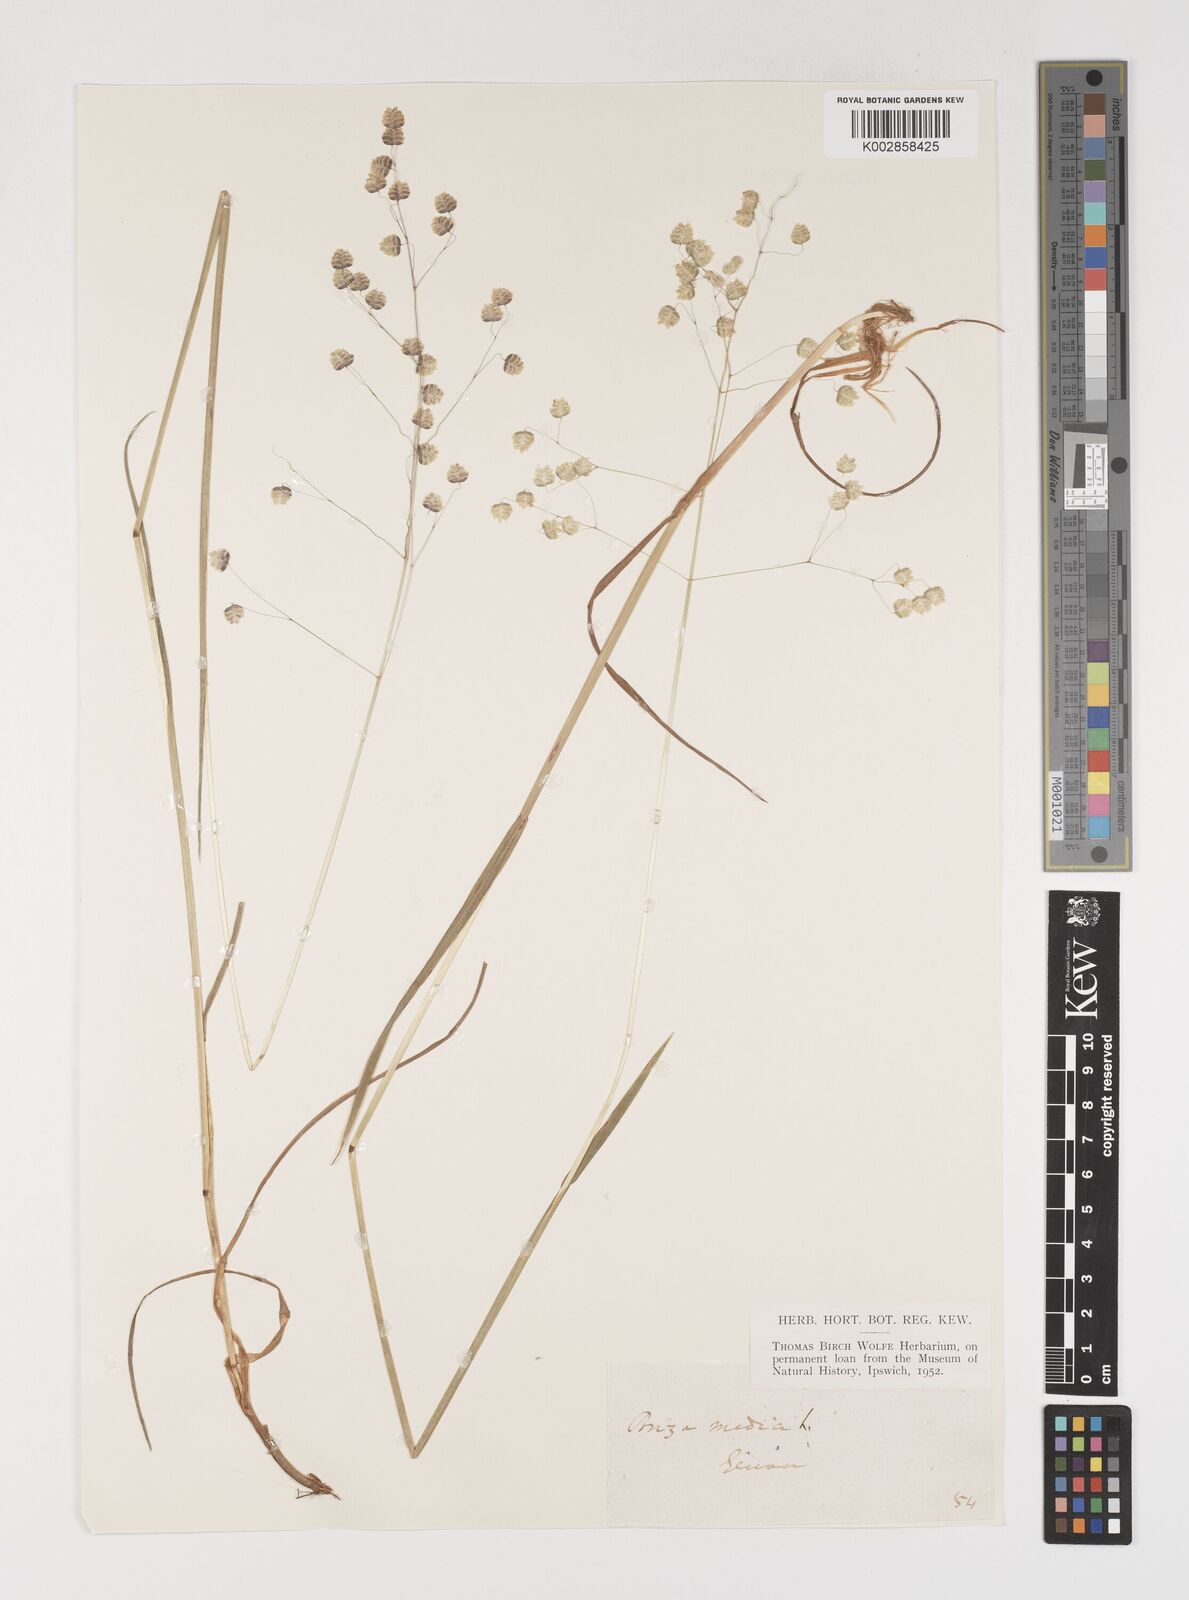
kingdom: Plantae
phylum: Tracheophyta
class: Liliopsida
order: Poales
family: Poaceae
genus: Briza
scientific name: Briza media
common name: Quaking grass
